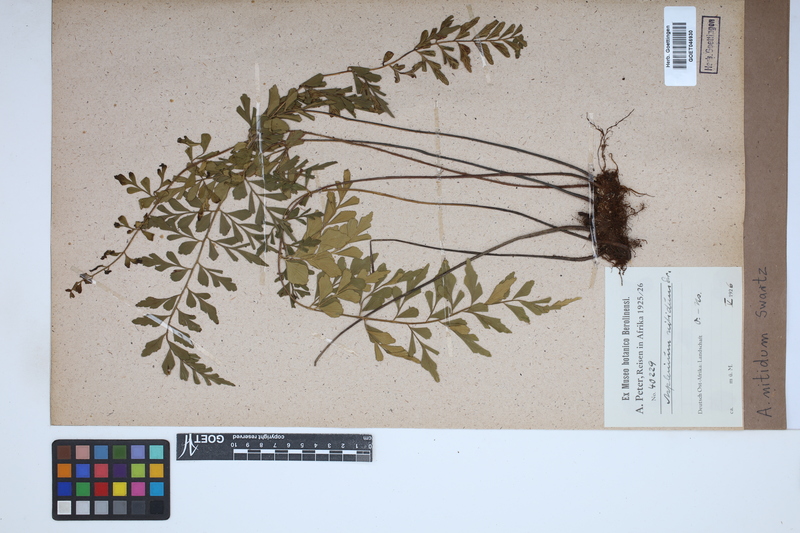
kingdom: Plantae
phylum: Tracheophyta
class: Polypodiopsida
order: Polypodiales
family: Aspleniaceae
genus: Asplenium
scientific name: Asplenium nitidum
